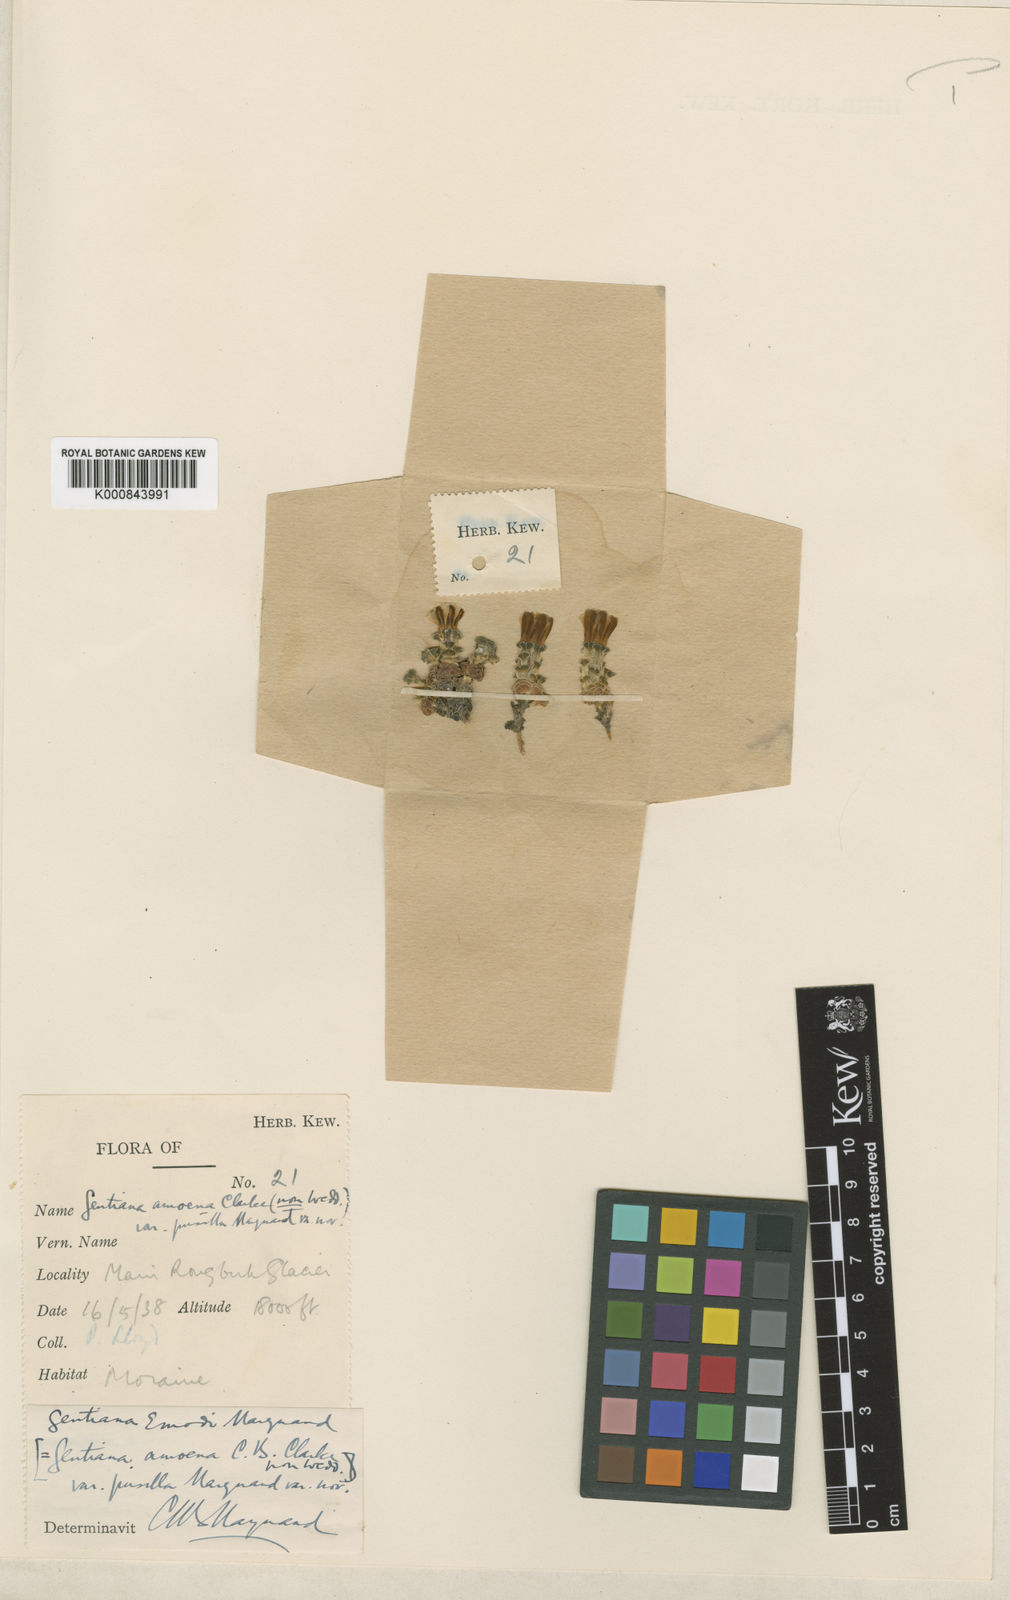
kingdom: Plantae
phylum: Tracheophyta
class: Magnoliopsida
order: Gentianales
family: Gentianaceae
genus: Gentiana
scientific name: Gentiana urnula
